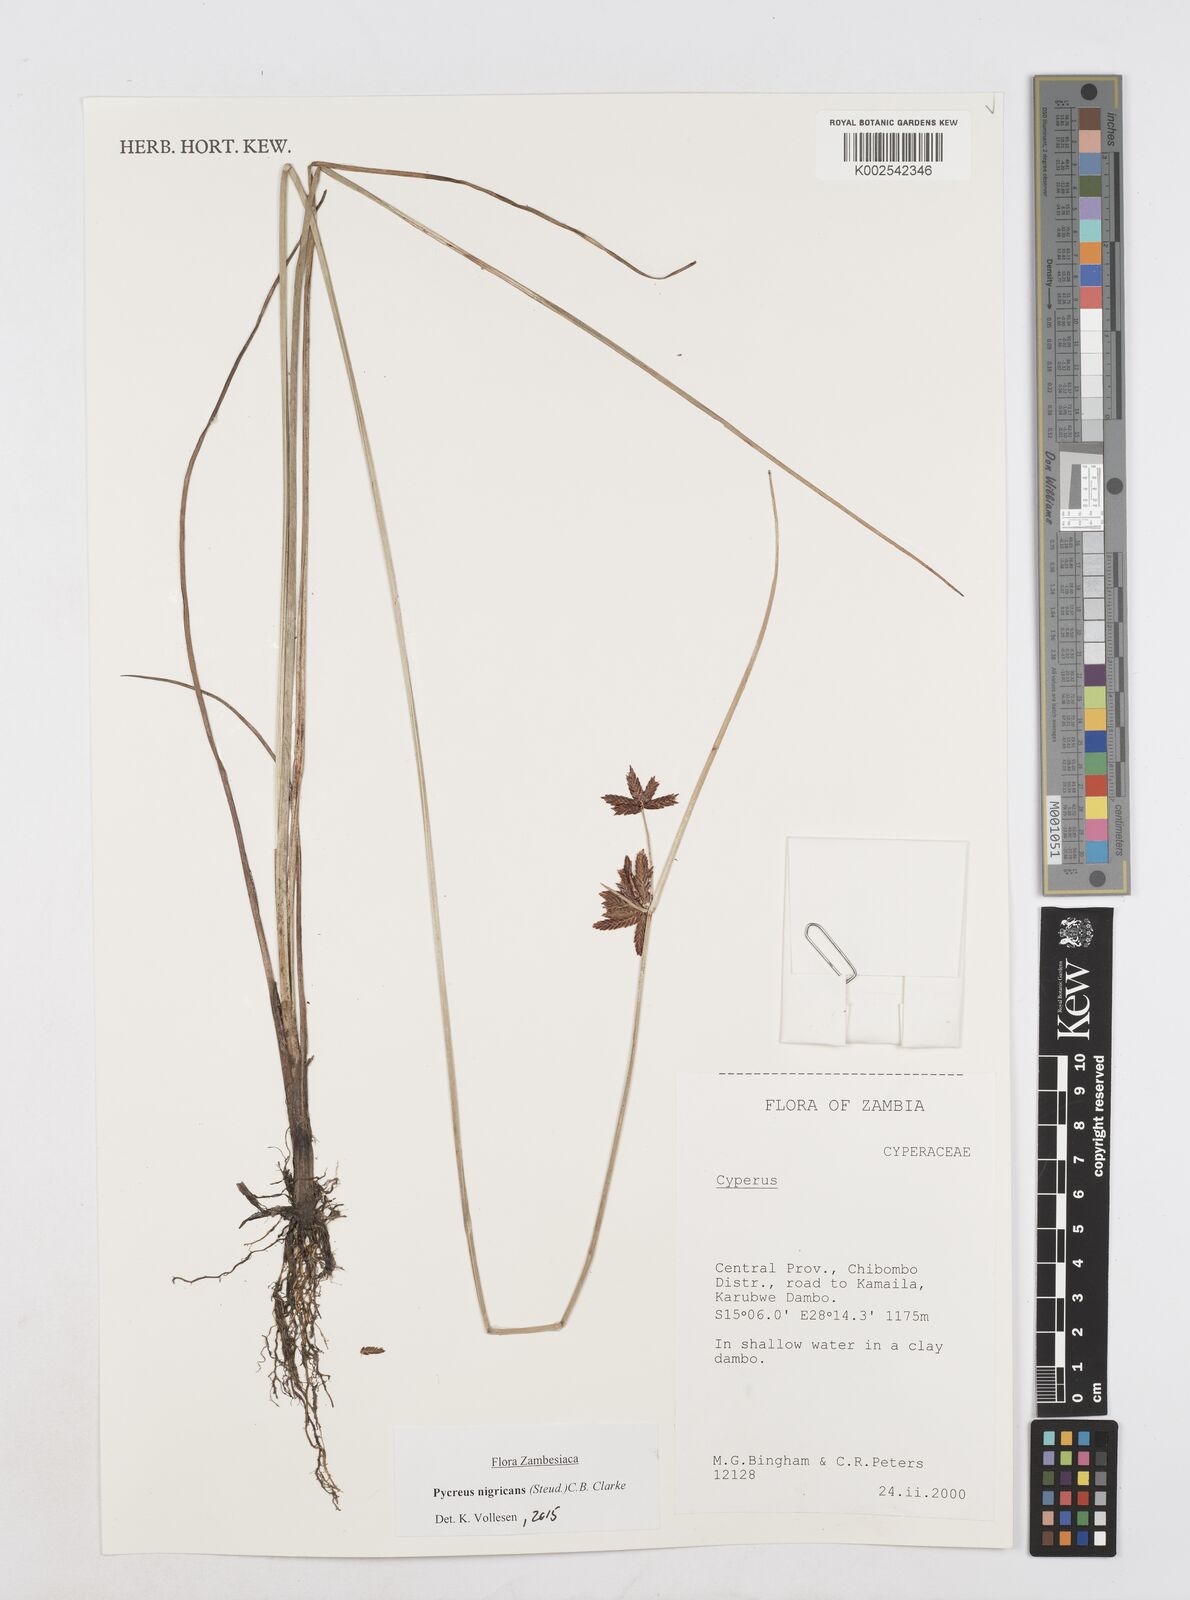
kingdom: Plantae
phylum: Tracheophyta
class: Liliopsida
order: Poales
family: Cyperaceae
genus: Cyperus
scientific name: Cyperus nigricans
